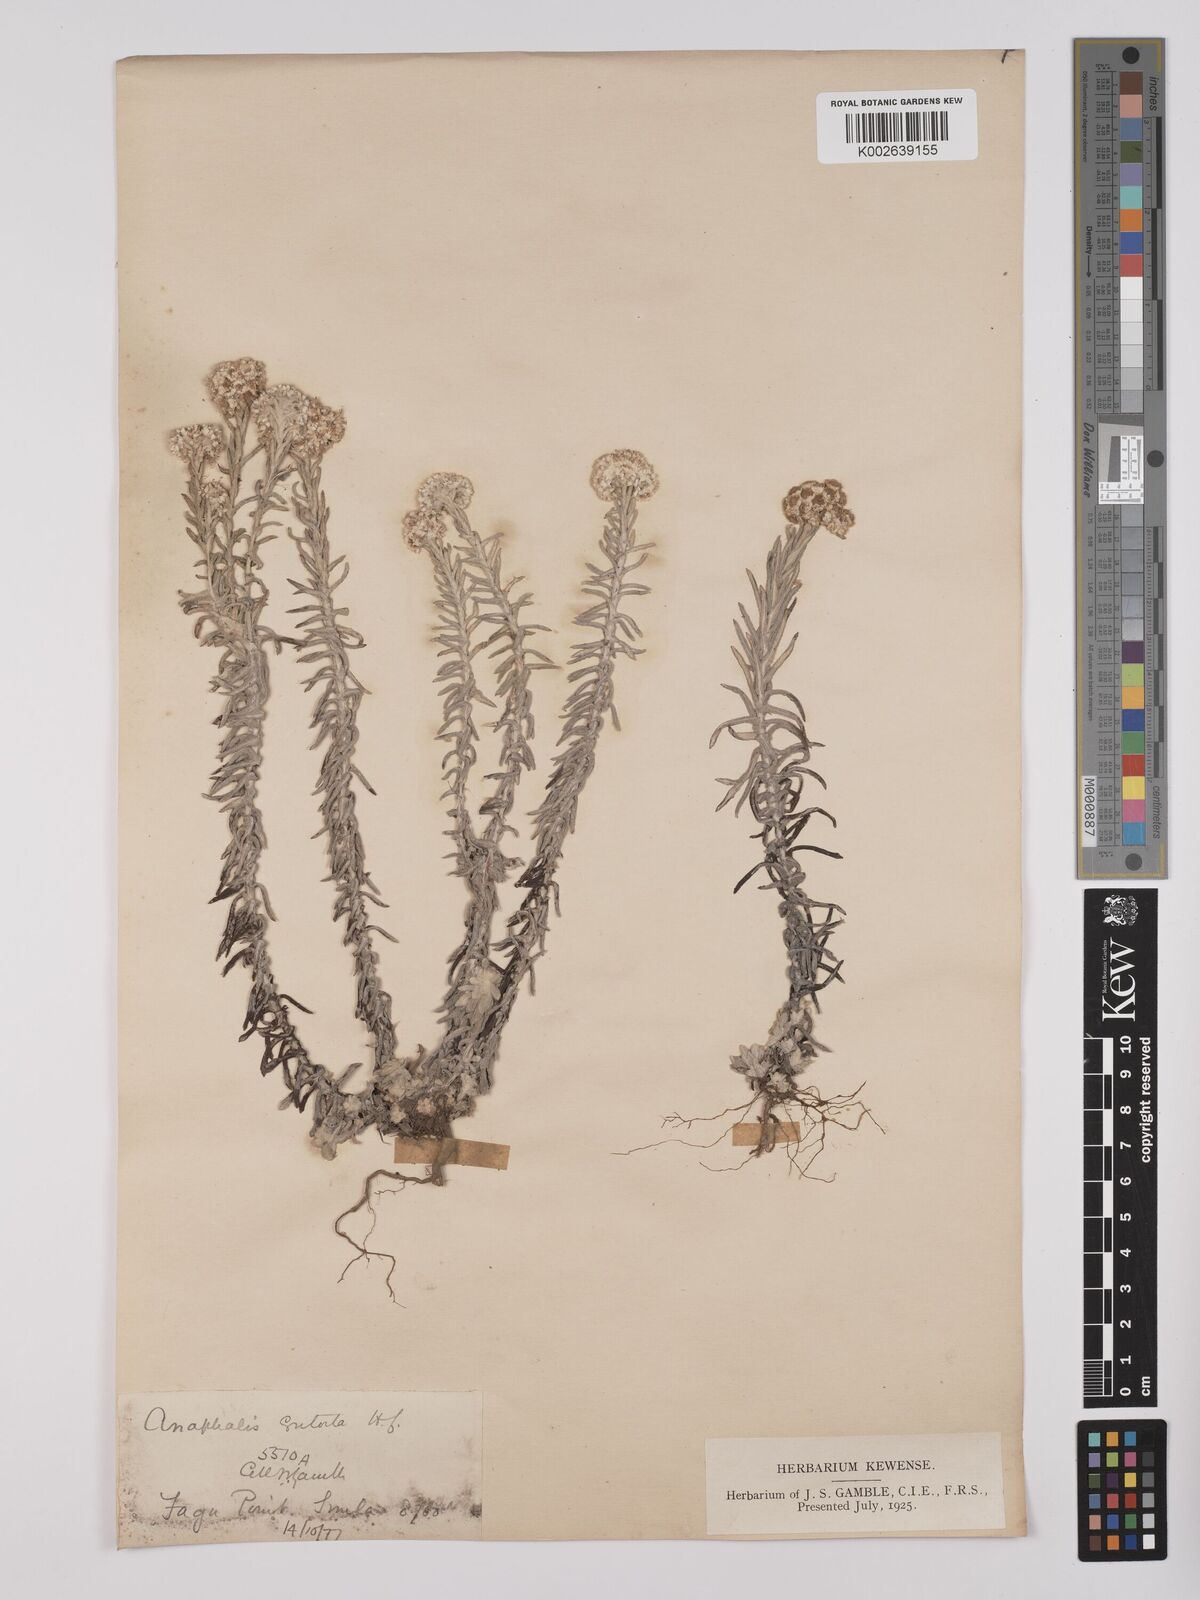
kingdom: Plantae
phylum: Tracheophyta
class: Magnoliopsida
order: Asterales
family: Asteraceae
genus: Anaphalis
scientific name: Anaphalis contorta
